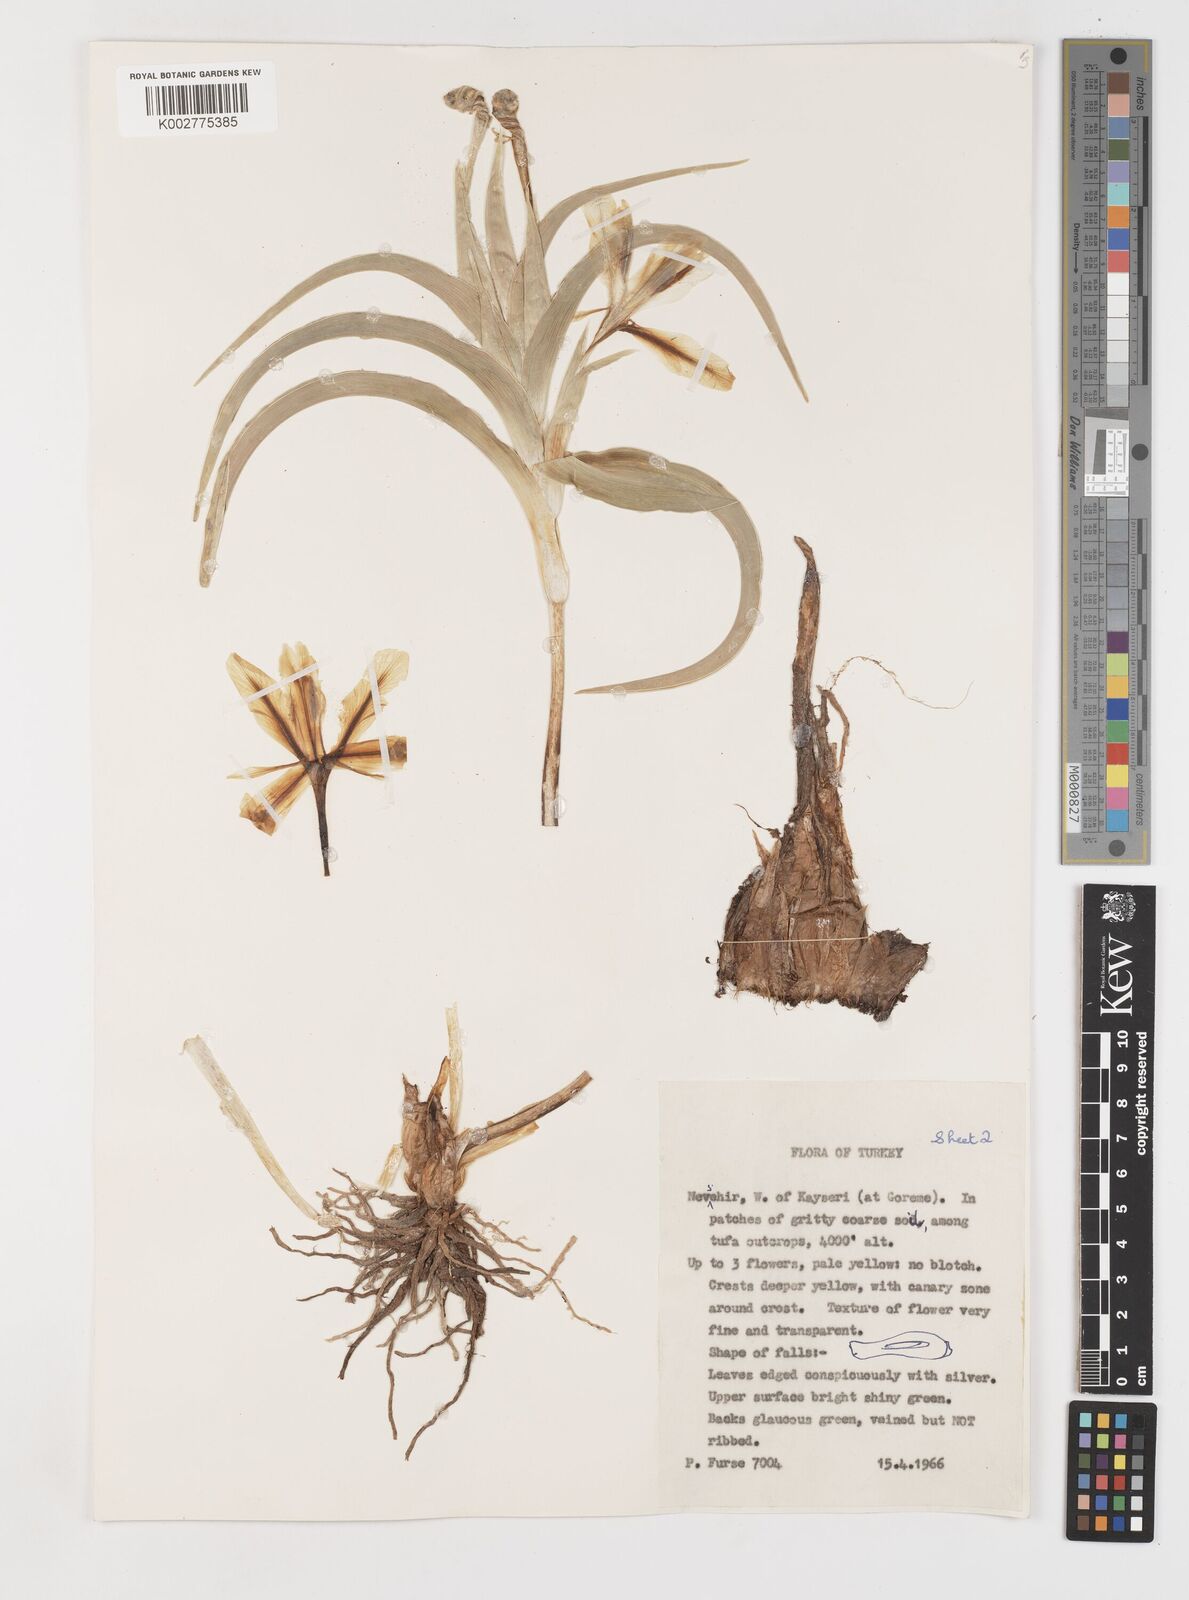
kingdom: Plantae
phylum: Tracheophyta
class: Liliopsida
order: Asparagales
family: Iridaceae
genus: Iris
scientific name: Iris caucasica
